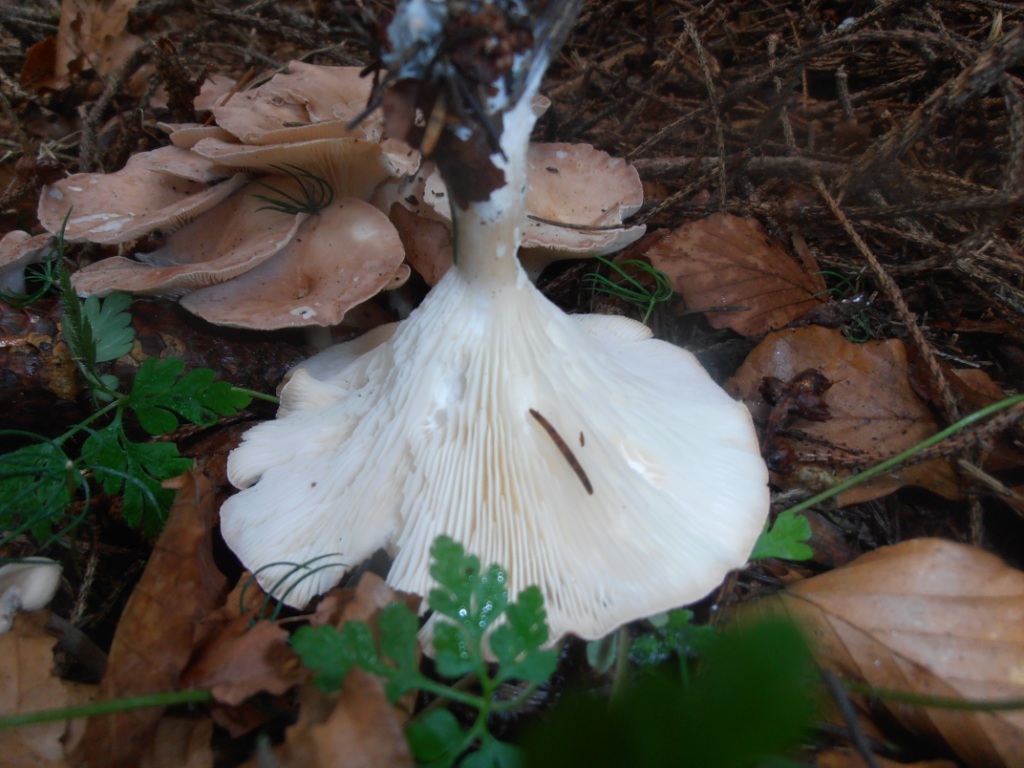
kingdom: Fungi
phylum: Basidiomycota
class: Agaricomycetes
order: Agaricales
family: Tricholomataceae
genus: Infundibulicybe
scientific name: Infundibulicybe gibba
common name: almindelig tragthat
